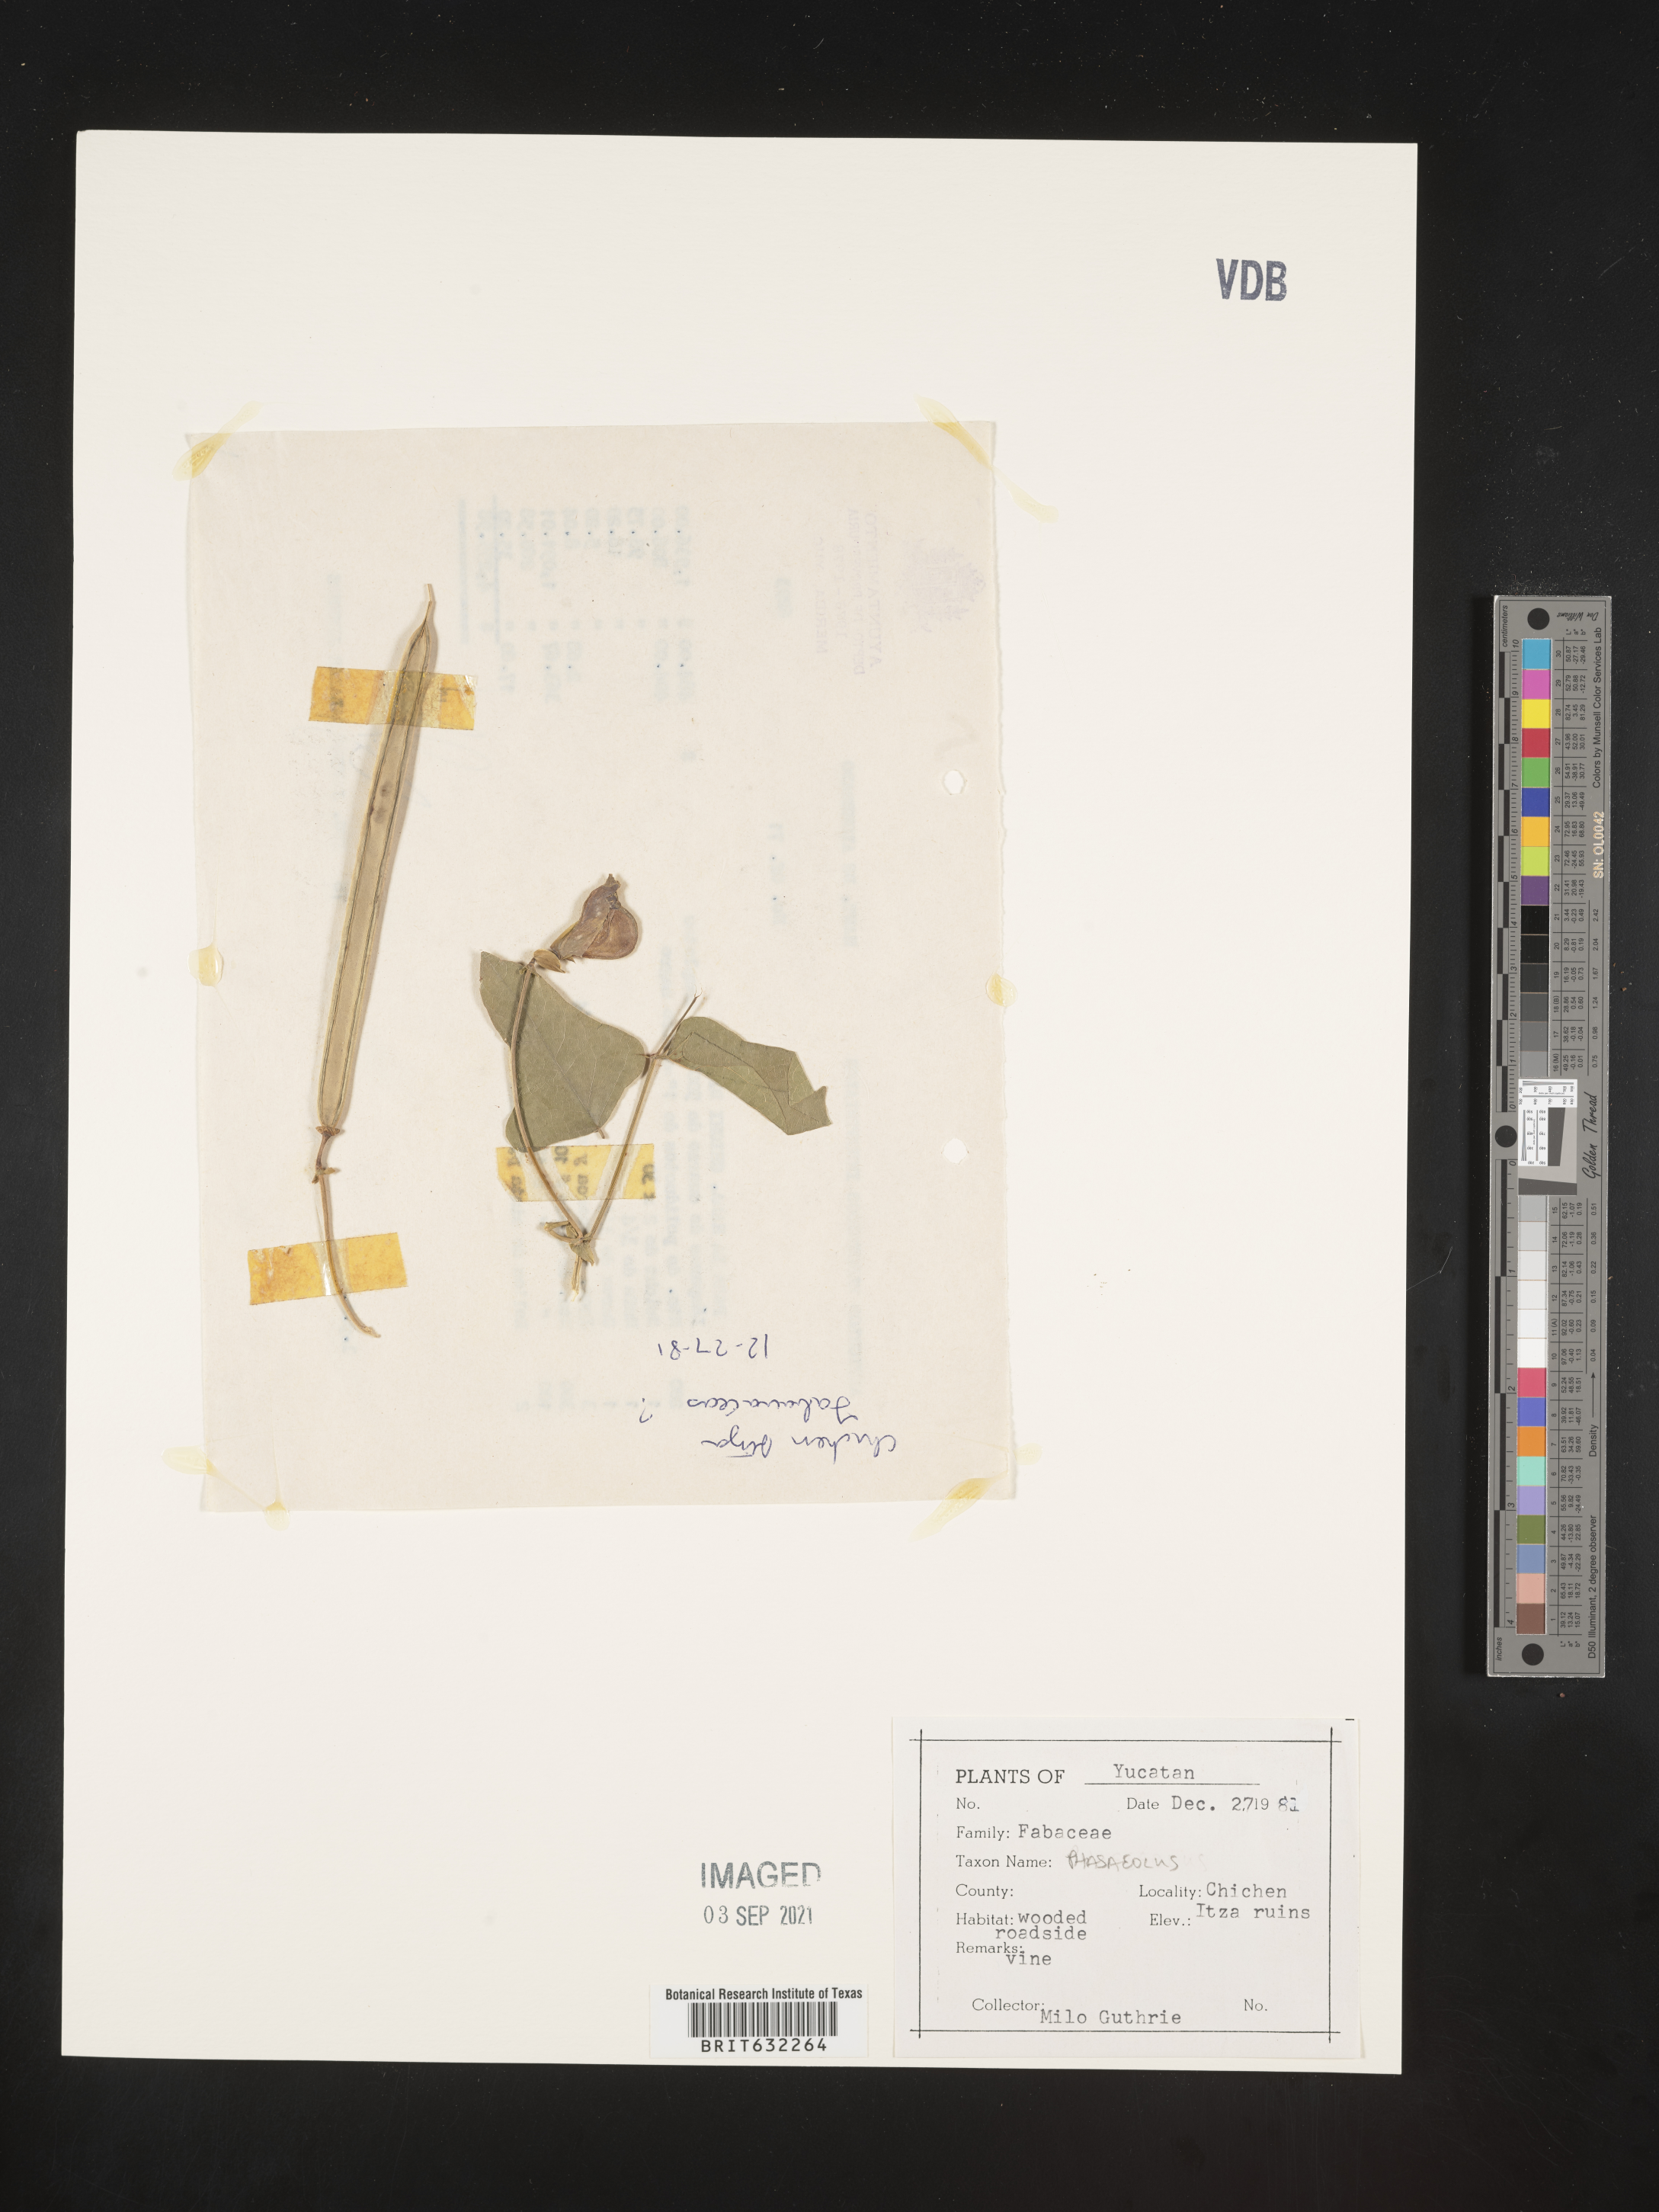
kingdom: Plantae
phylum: Tracheophyta
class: Magnoliopsida
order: Fabales
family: Fabaceae
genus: Phaseolus
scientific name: Phaseolus
